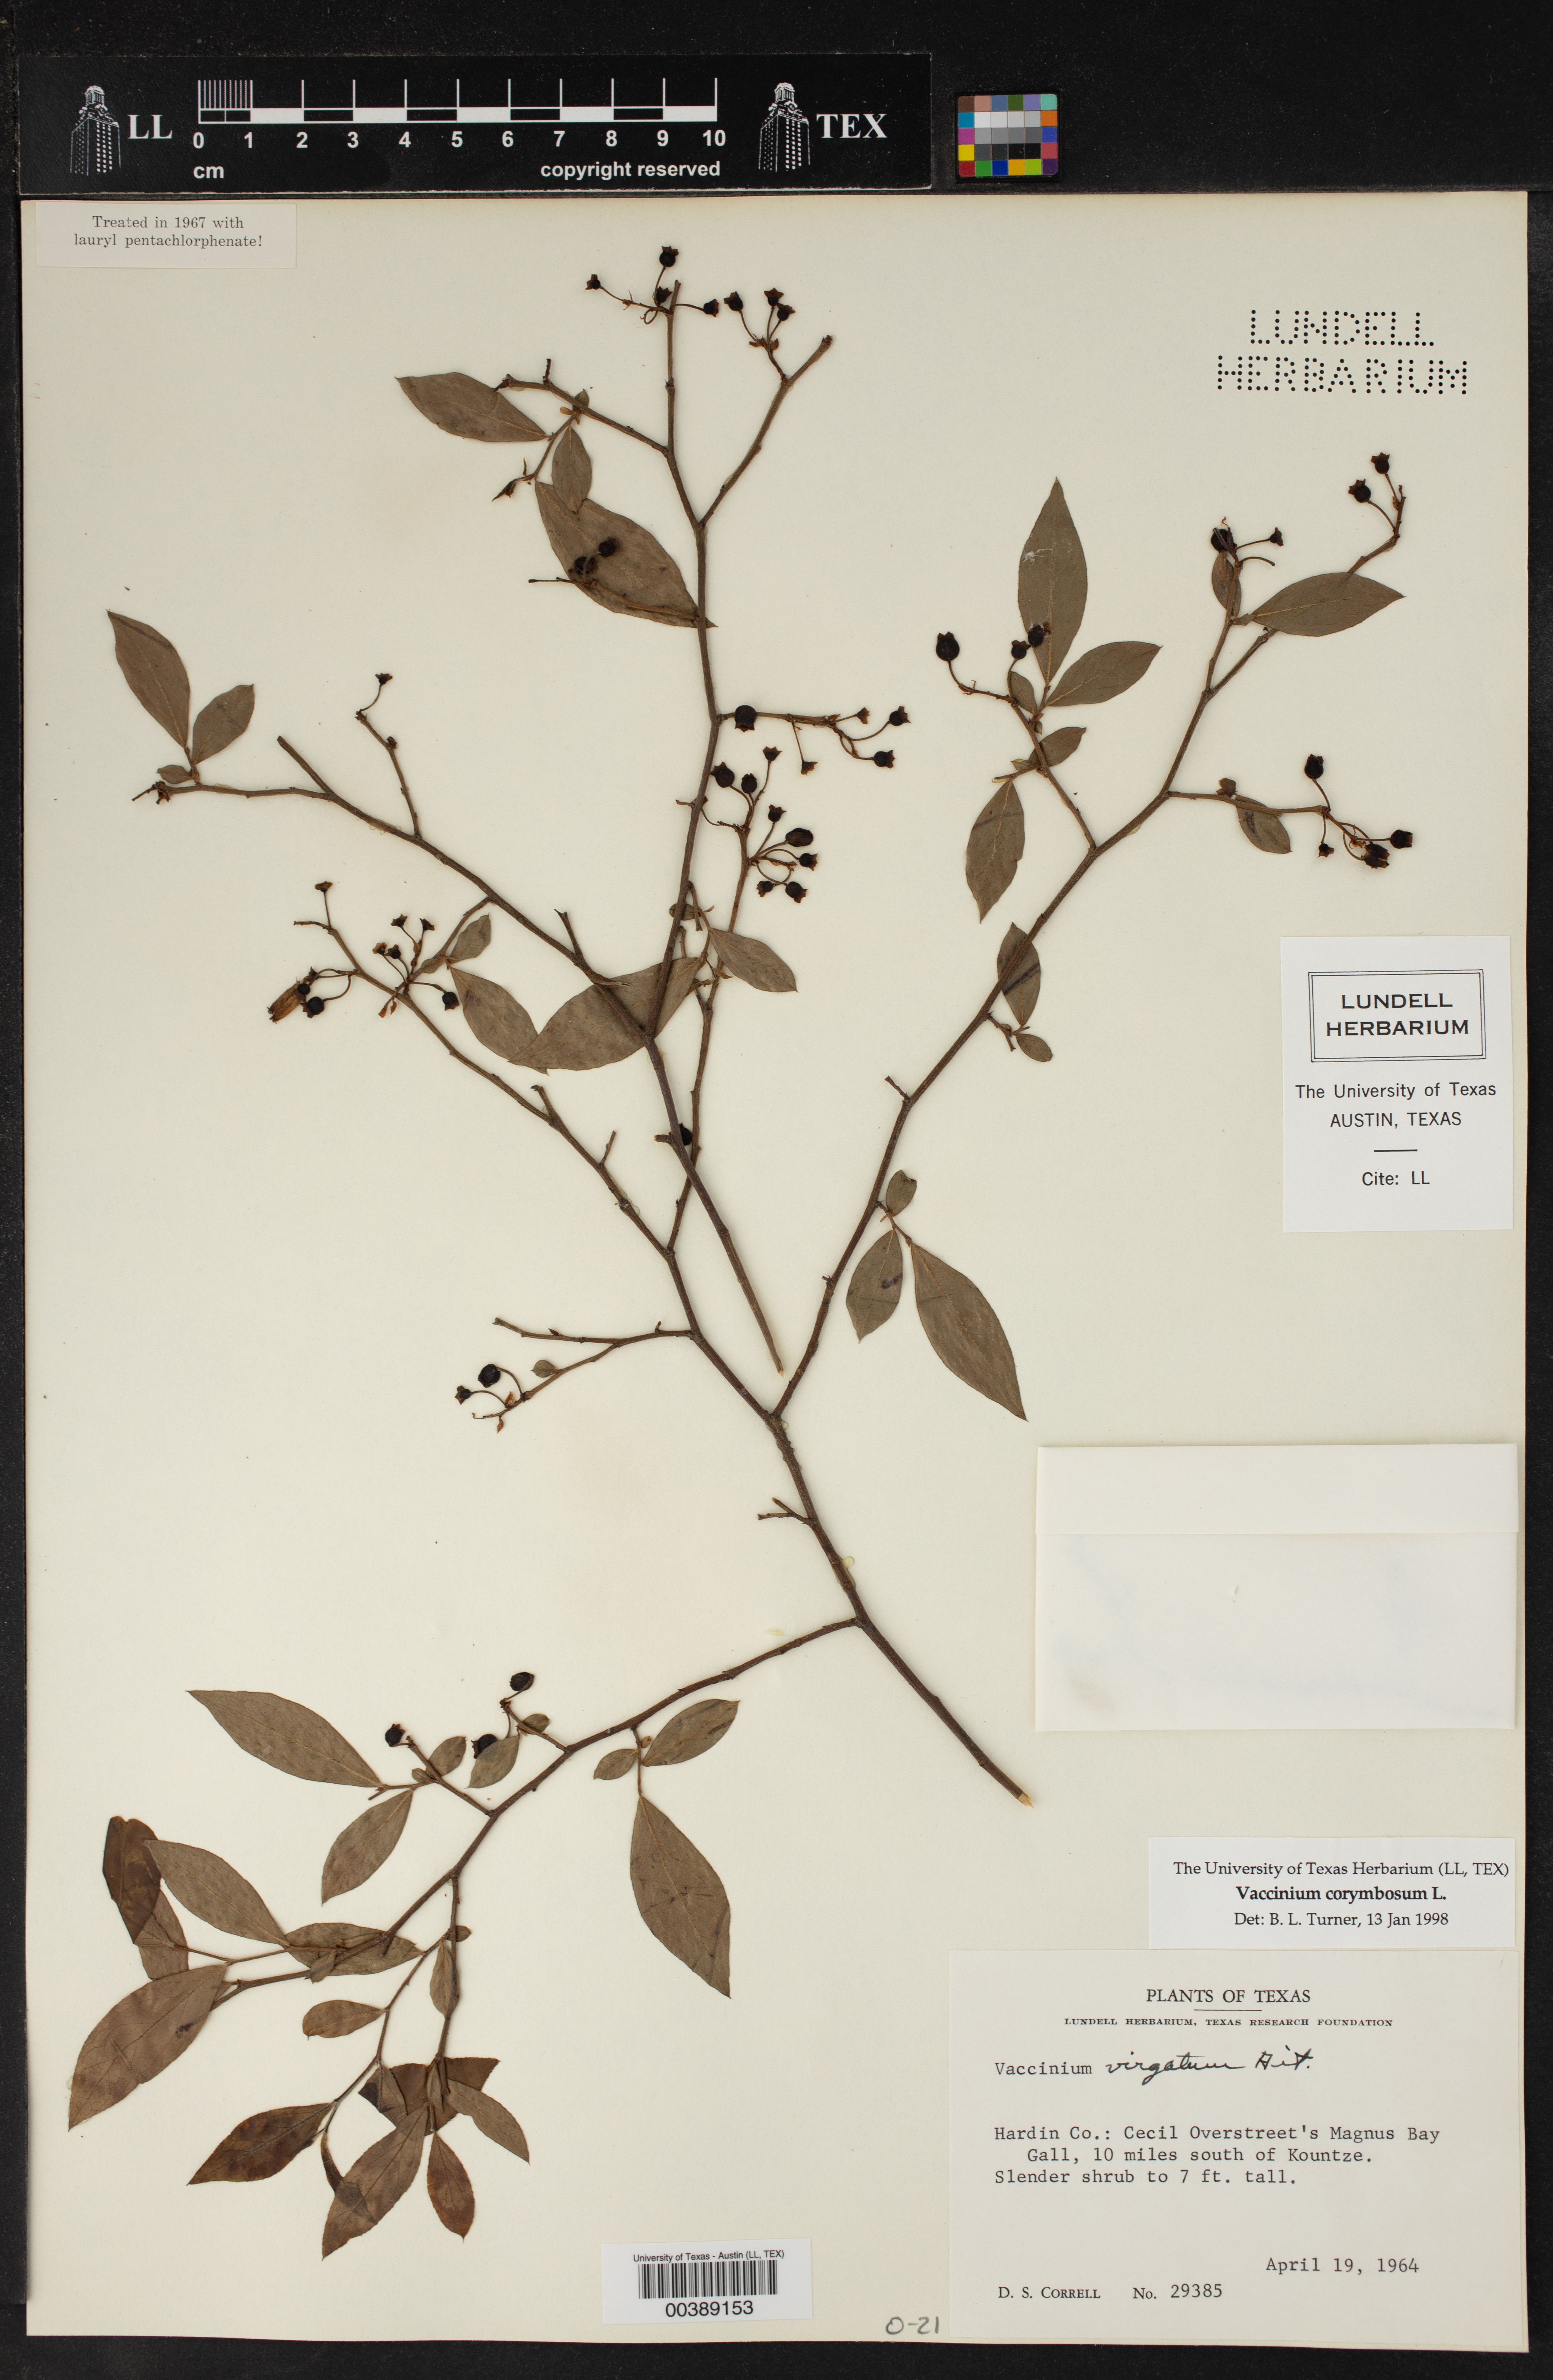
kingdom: Plantae
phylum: Tracheophyta
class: Magnoliopsida
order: Ericales
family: Ericaceae
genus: Vaccinium
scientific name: Vaccinium corymbosum
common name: Blueberry
